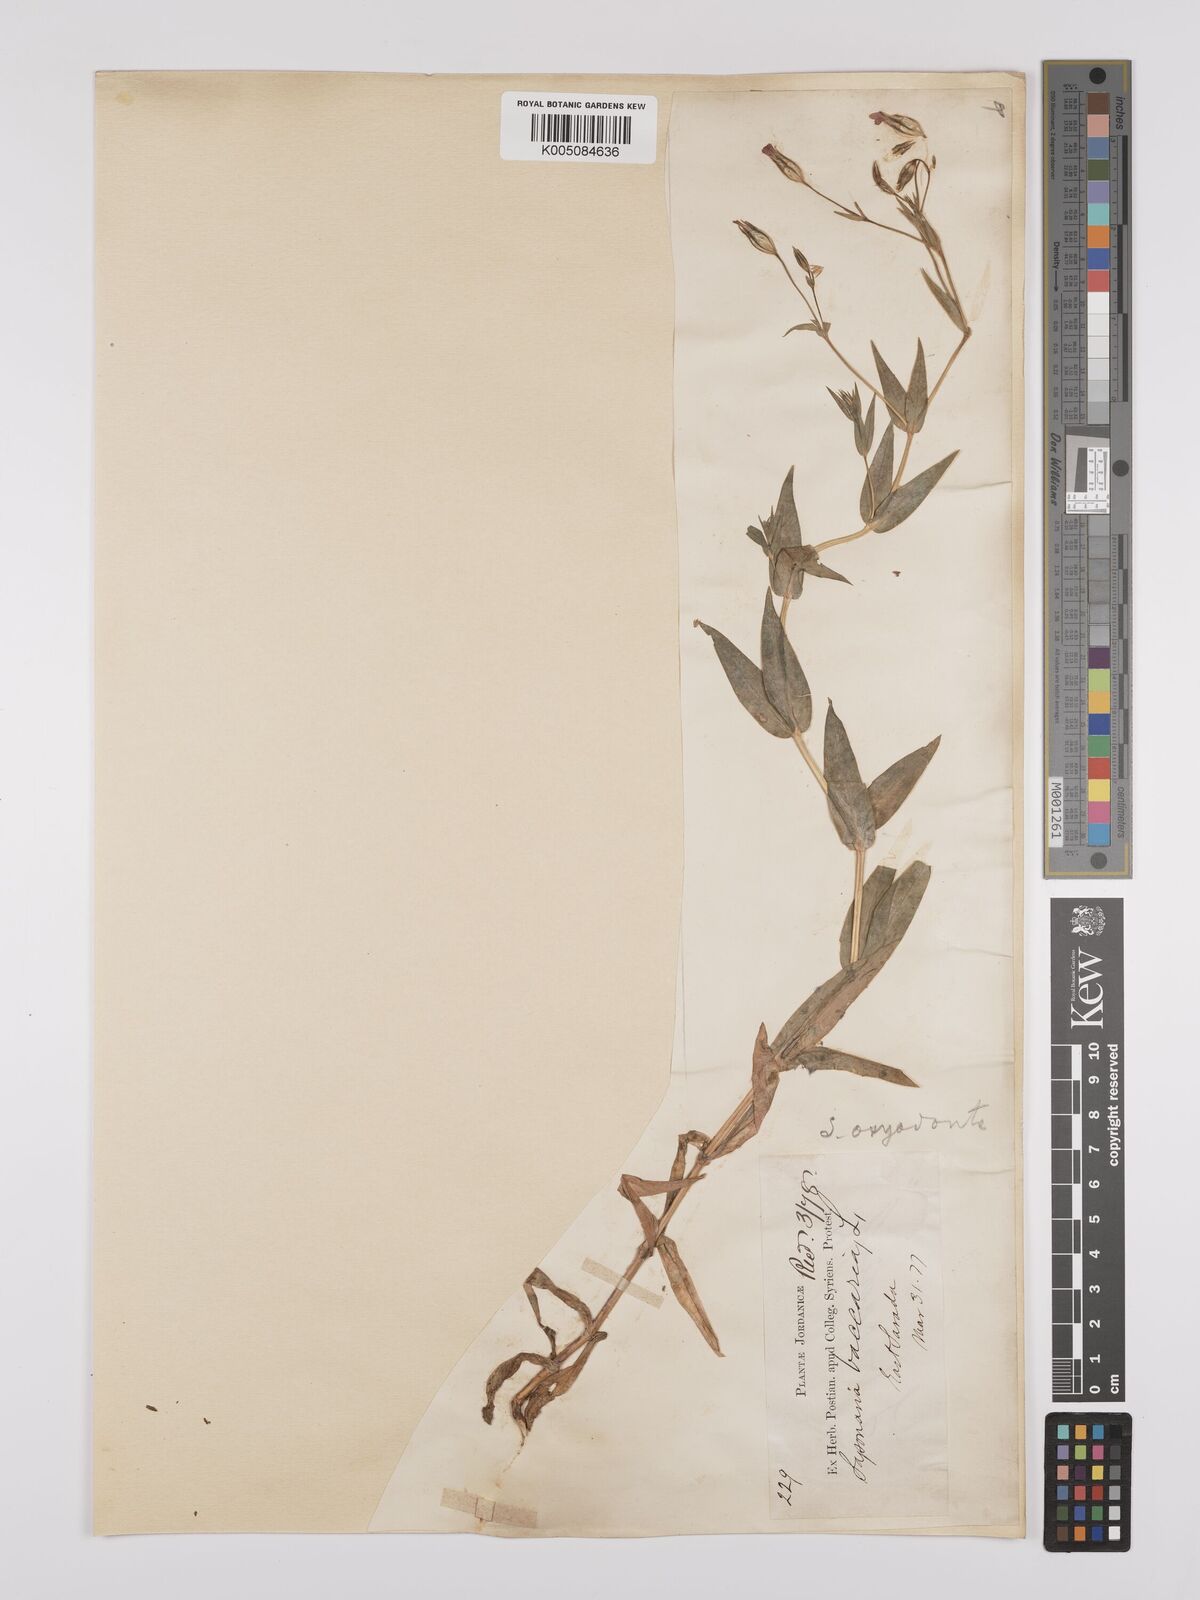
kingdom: Plantae
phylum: Tracheophyta
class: Magnoliopsida
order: Caryophyllales
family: Caryophyllaceae
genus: Gypsophila
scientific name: Gypsophila vaccaria
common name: Cow soapwort
